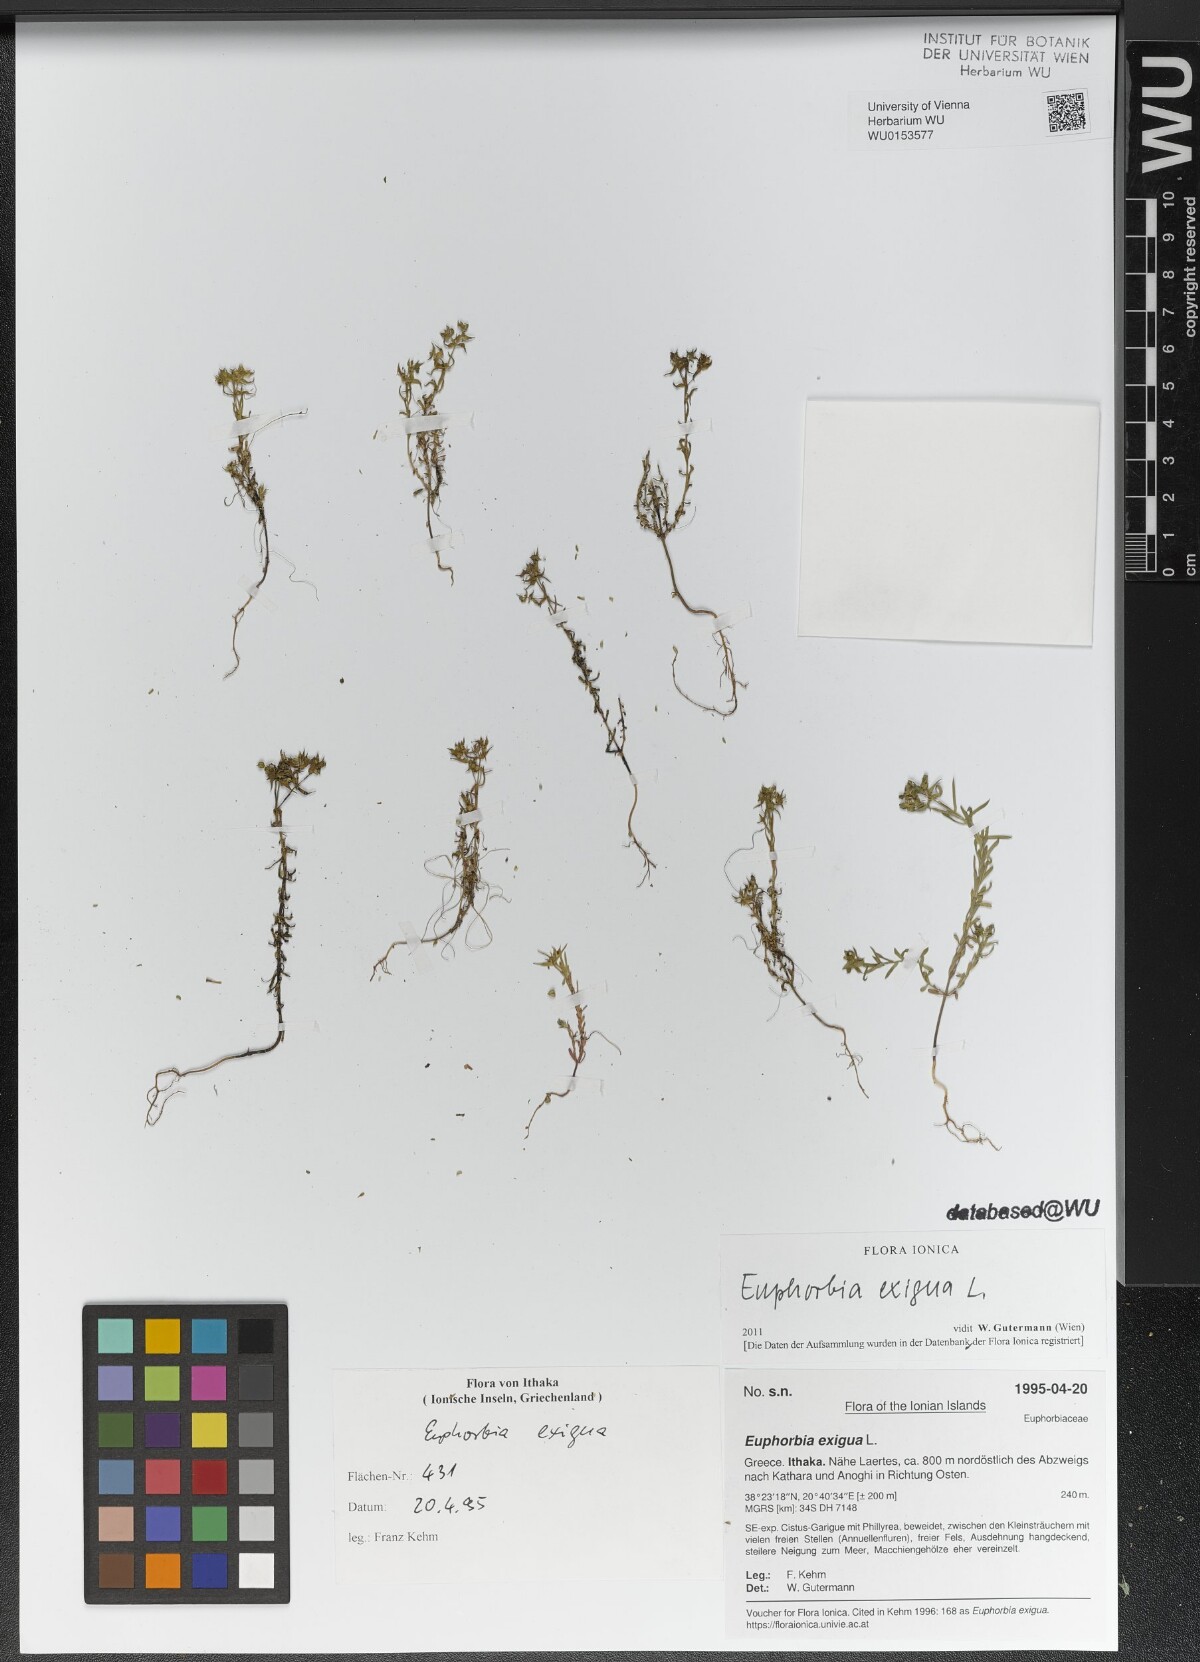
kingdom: Plantae
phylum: Tracheophyta
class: Magnoliopsida
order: Malpighiales
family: Euphorbiaceae
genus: Euphorbia
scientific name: Euphorbia exigua
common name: Dwarf spurge
